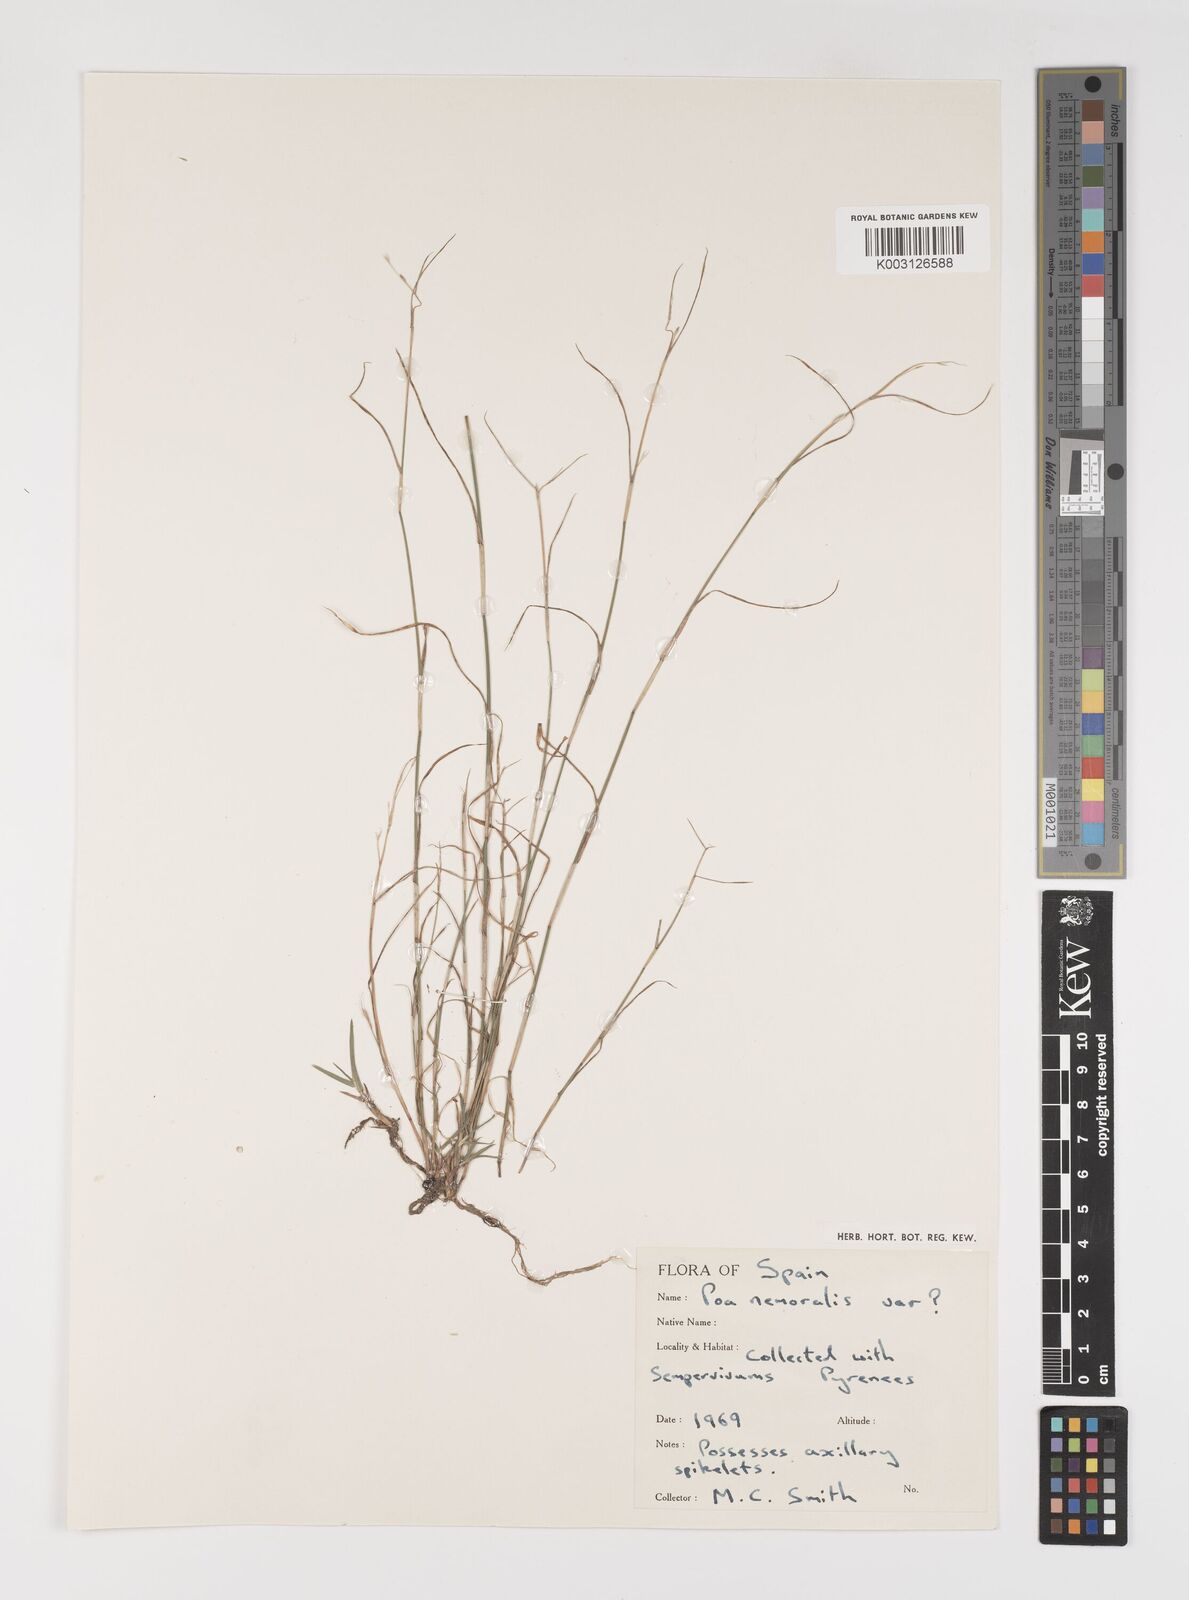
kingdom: Plantae
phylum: Tracheophyta
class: Liliopsida
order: Poales
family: Poaceae
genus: Poa
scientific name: Poa nemoralis
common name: Wood bluegrass
